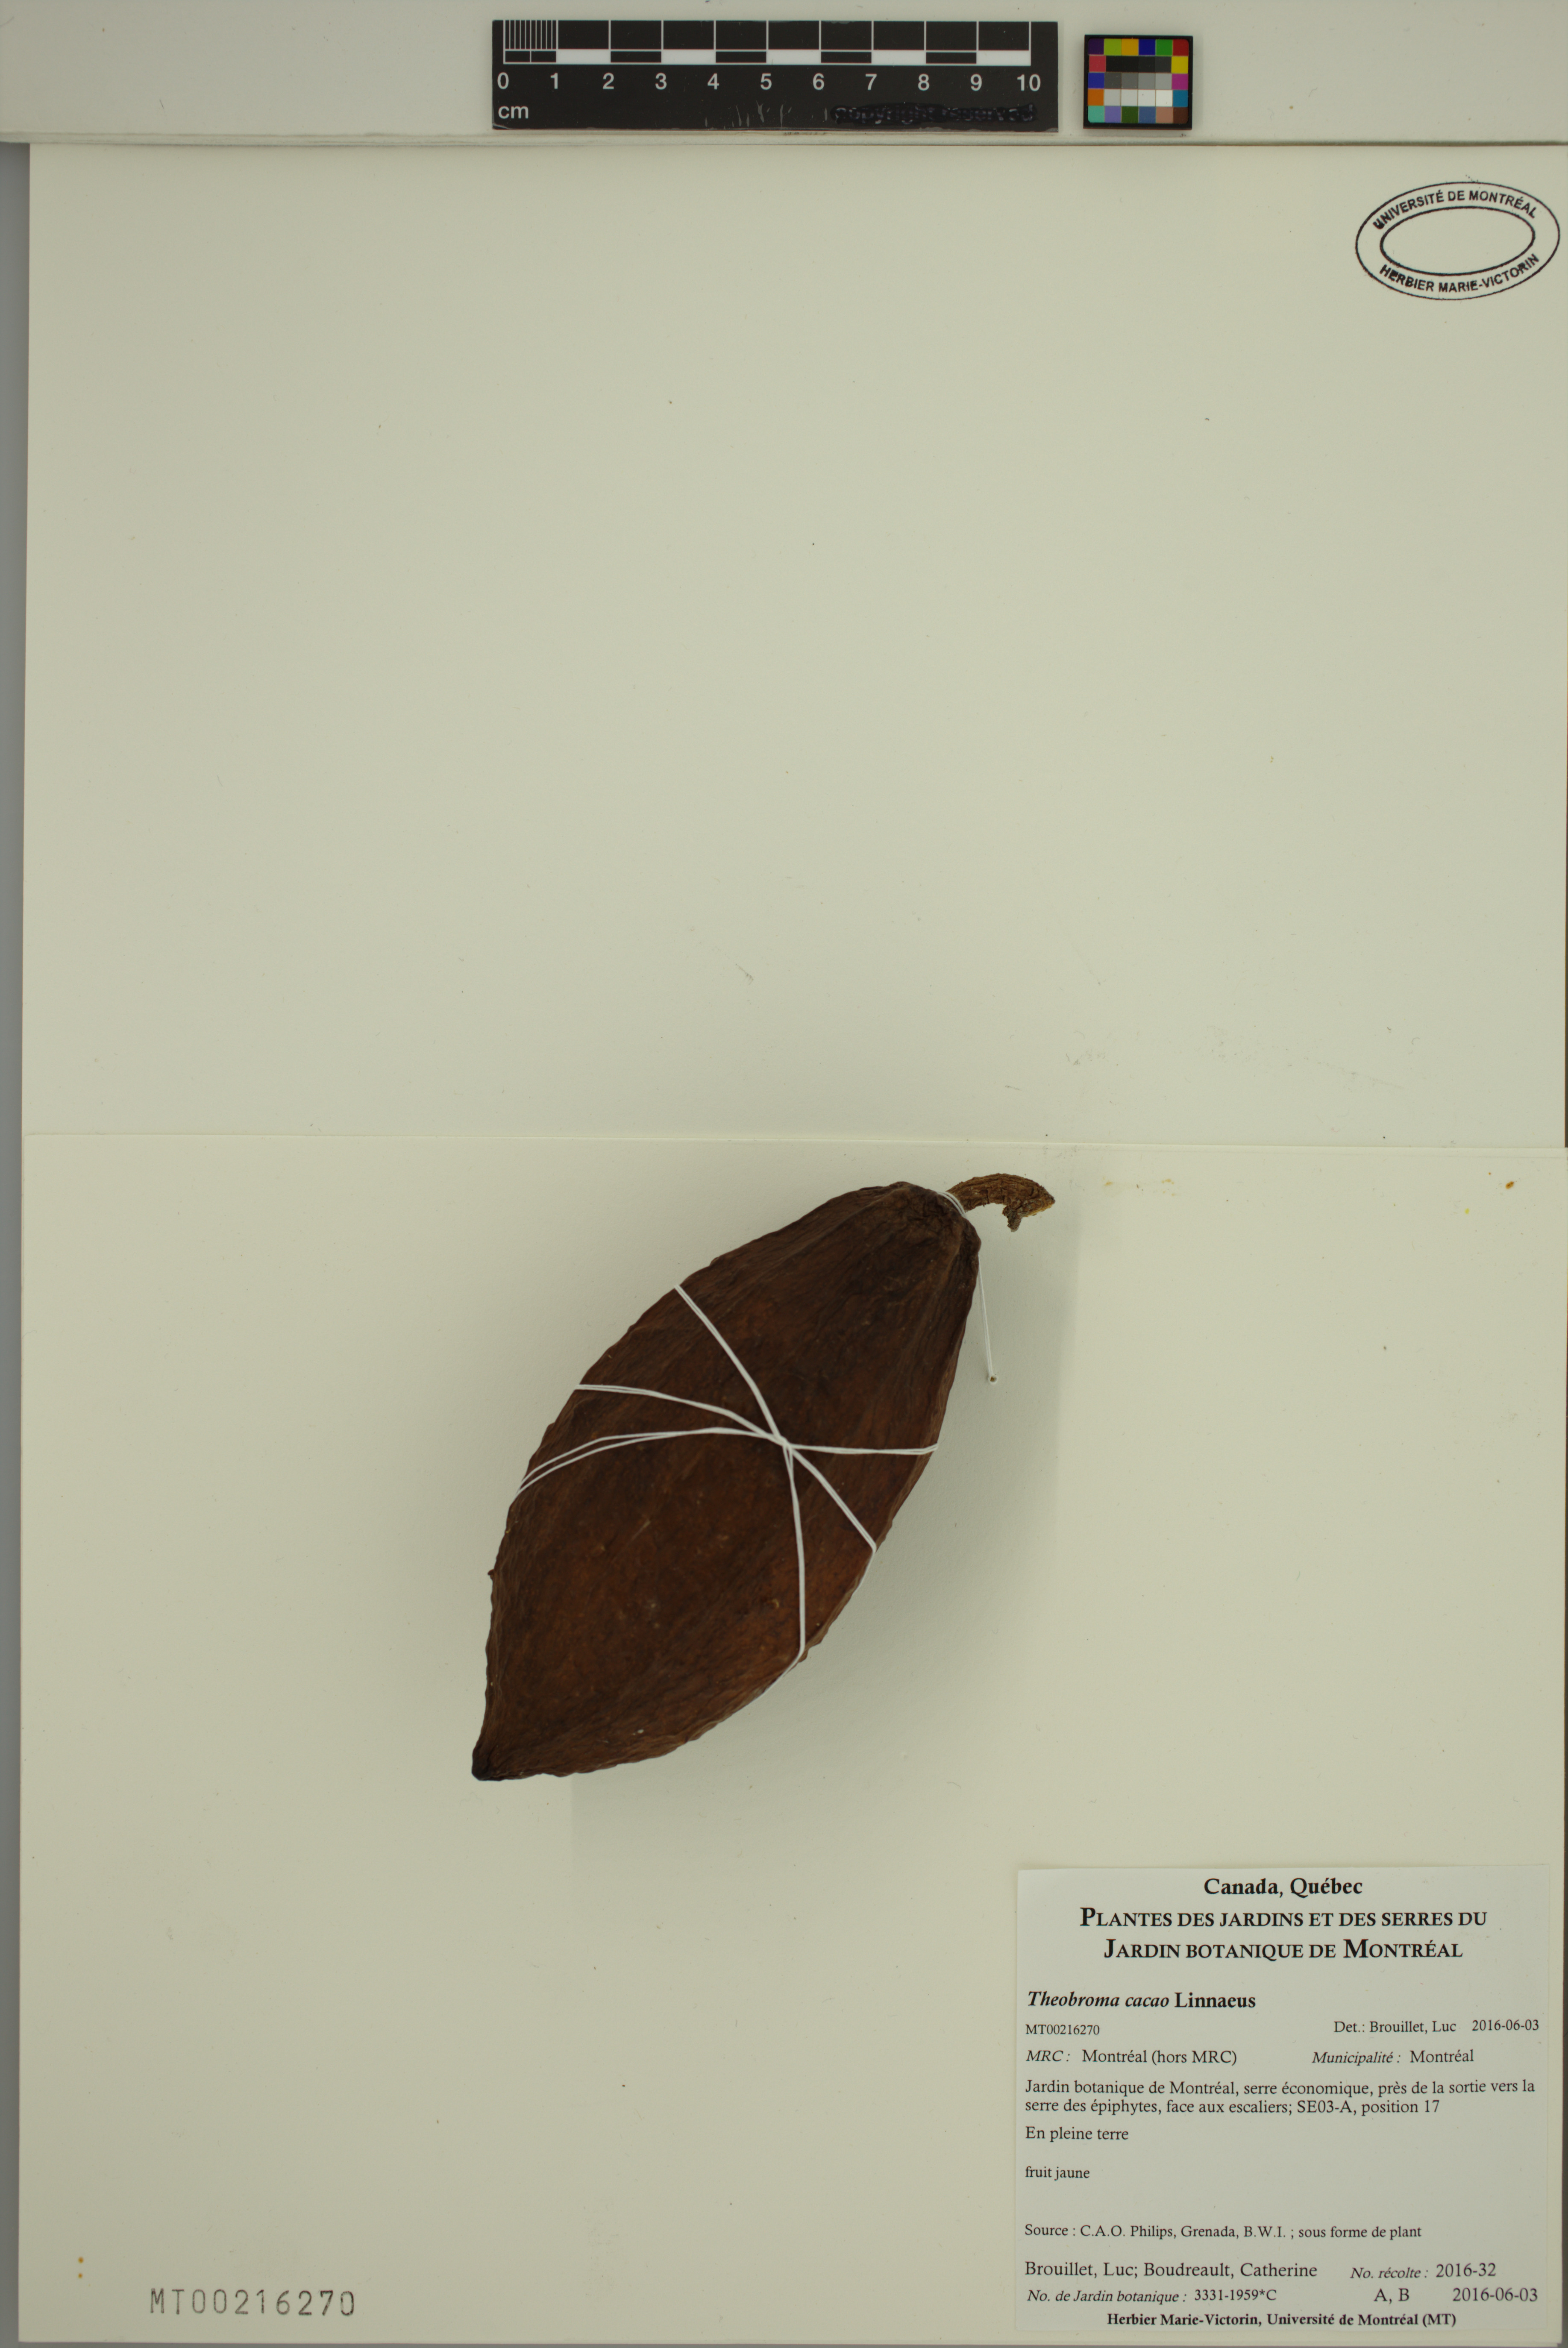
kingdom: Plantae
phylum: Tracheophyta
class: Magnoliopsida
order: Malvales
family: Malvaceae
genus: Theobroma
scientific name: Theobroma cacao
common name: Cocoa
